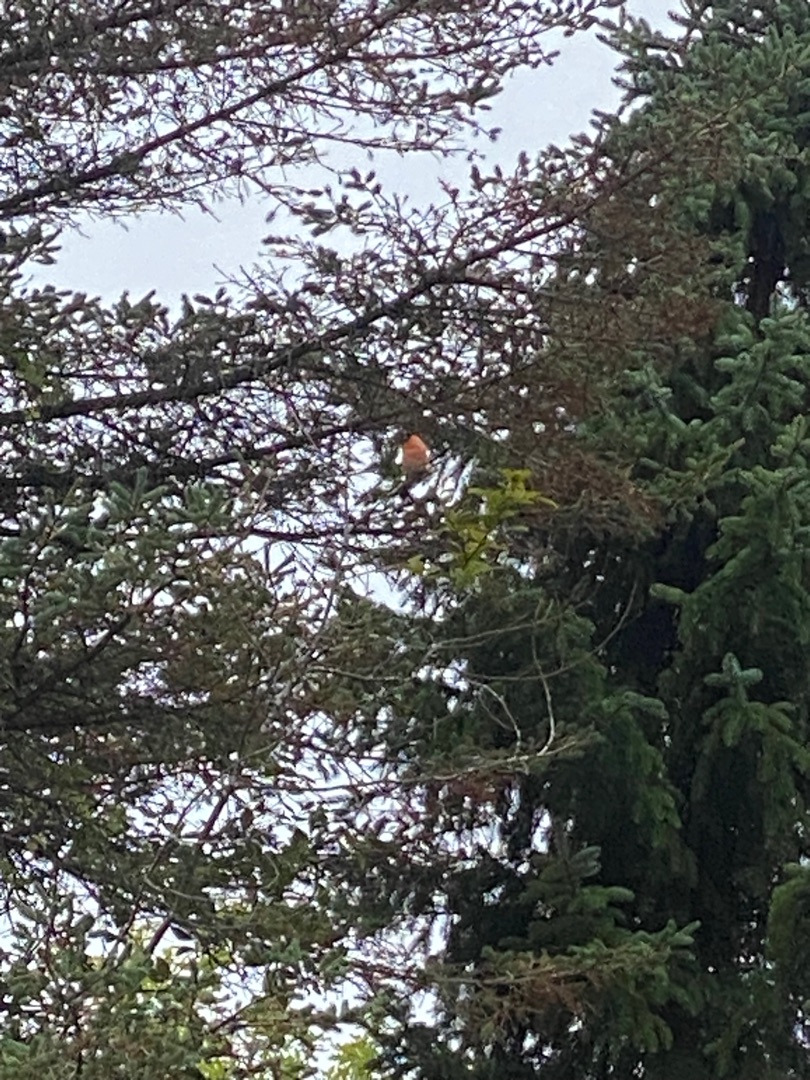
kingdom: Animalia
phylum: Chordata
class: Aves
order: Passeriformes
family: Fringillidae
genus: Pyrrhula
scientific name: Pyrrhula pyrrhula
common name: Dompap
